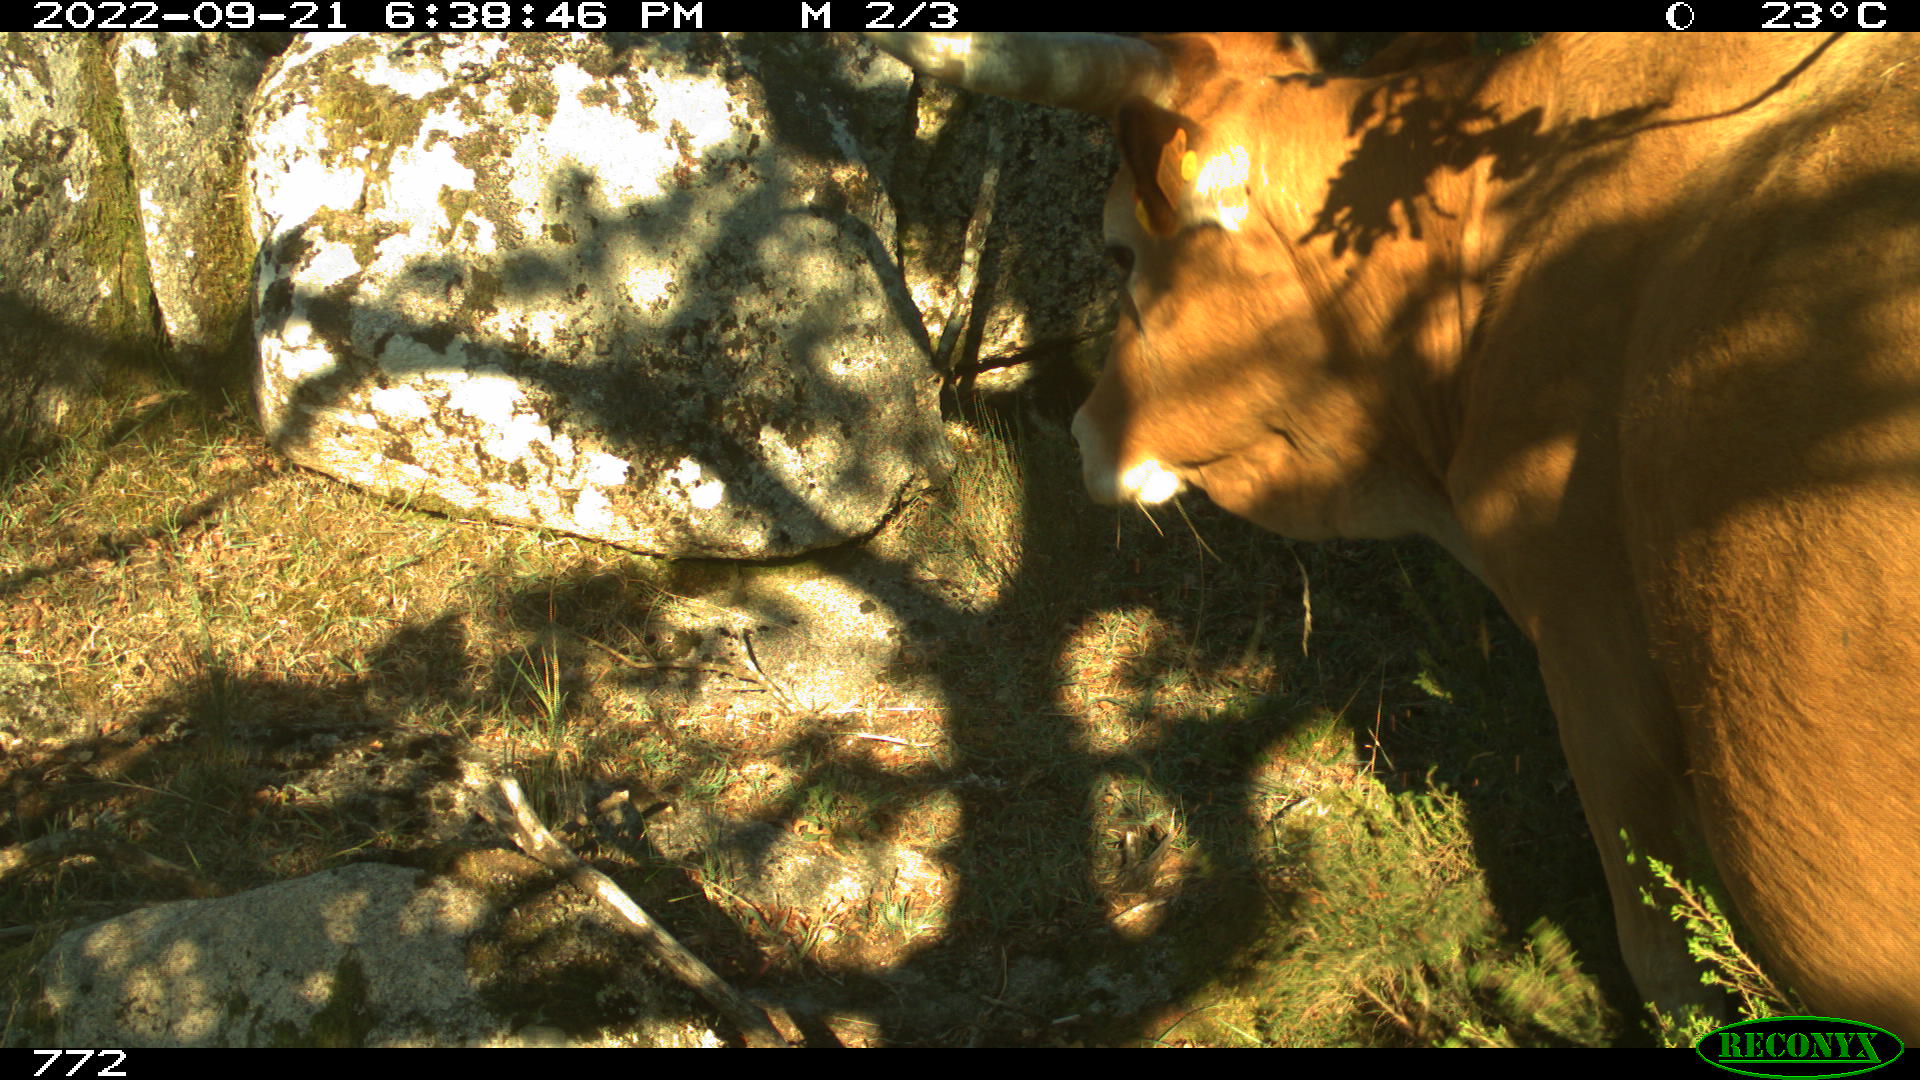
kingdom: Animalia
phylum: Chordata
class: Mammalia
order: Artiodactyla
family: Bovidae
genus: Bos
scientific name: Bos taurus
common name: Domesticated cattle
